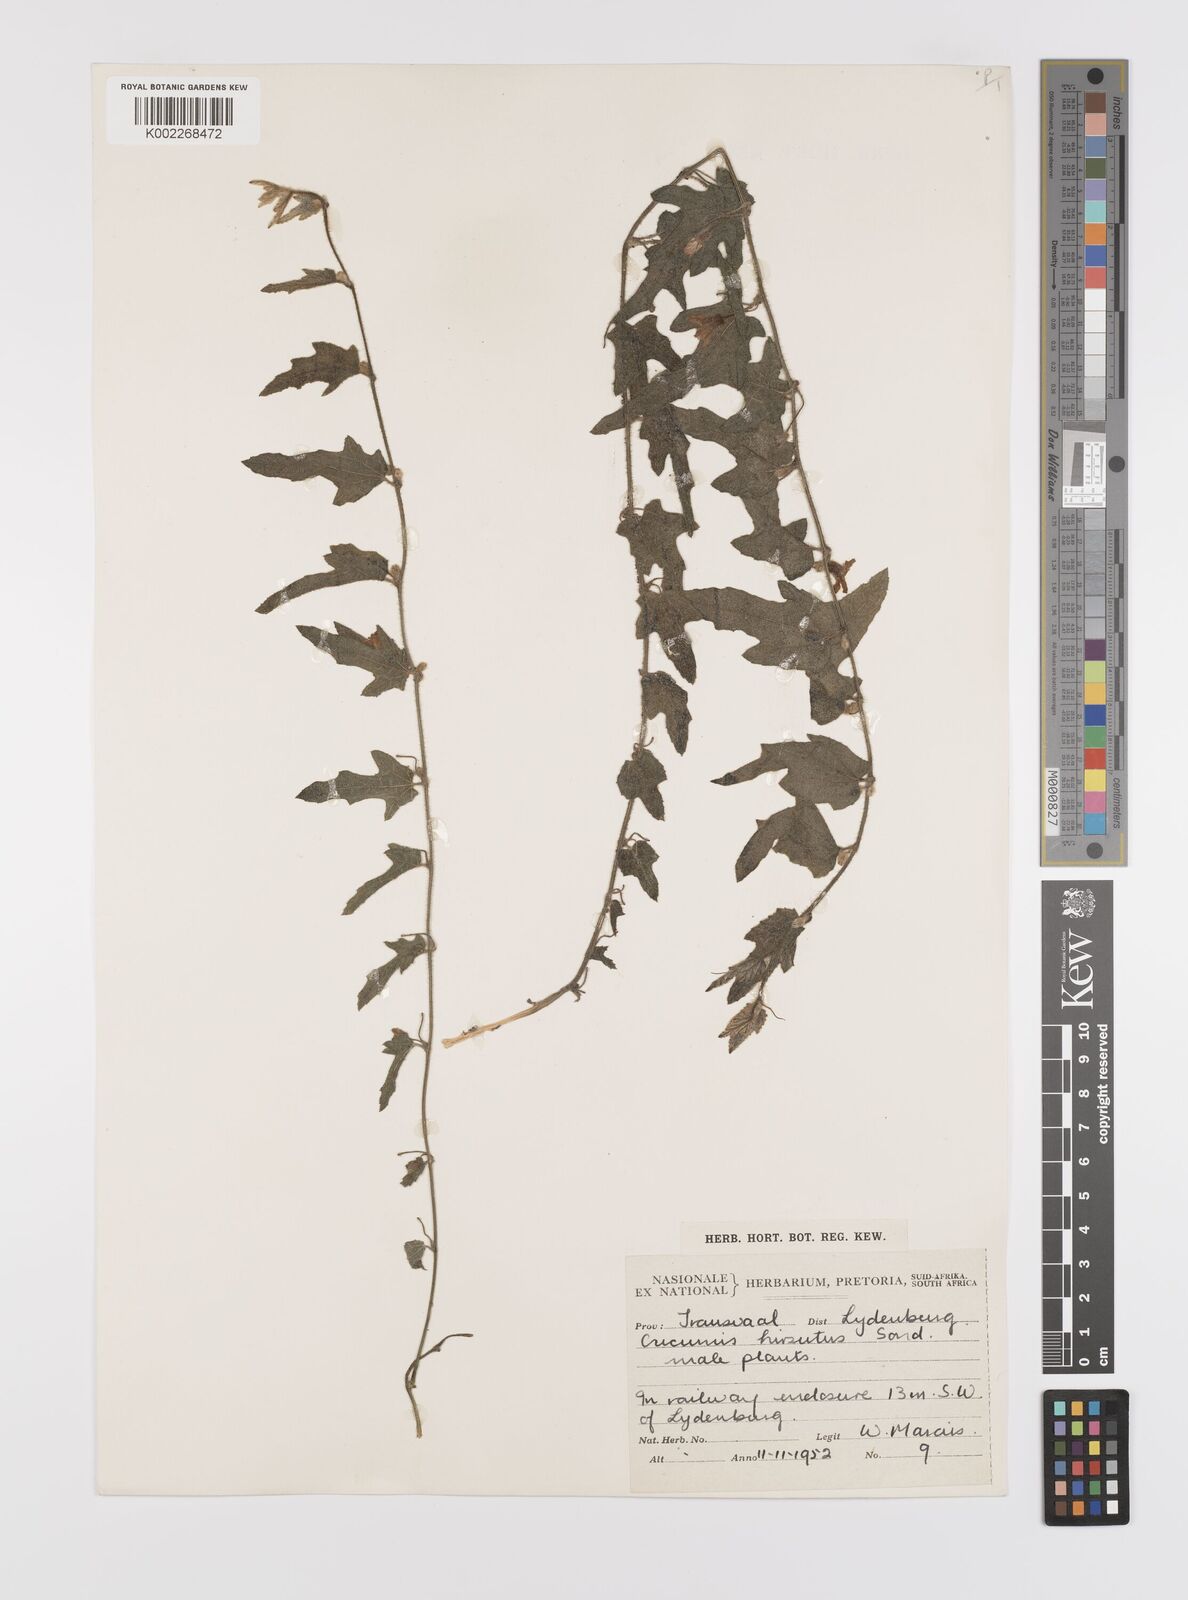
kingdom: Plantae
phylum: Tracheophyta
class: Magnoliopsida
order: Cucurbitales
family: Cucurbitaceae
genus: Cucumis
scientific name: Cucumis hirsutus
